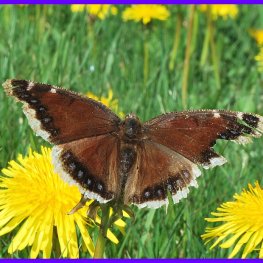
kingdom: Animalia
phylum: Arthropoda
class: Insecta
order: Lepidoptera
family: Nymphalidae
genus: Nymphalis
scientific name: Nymphalis antiopa
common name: Mourning Cloak
